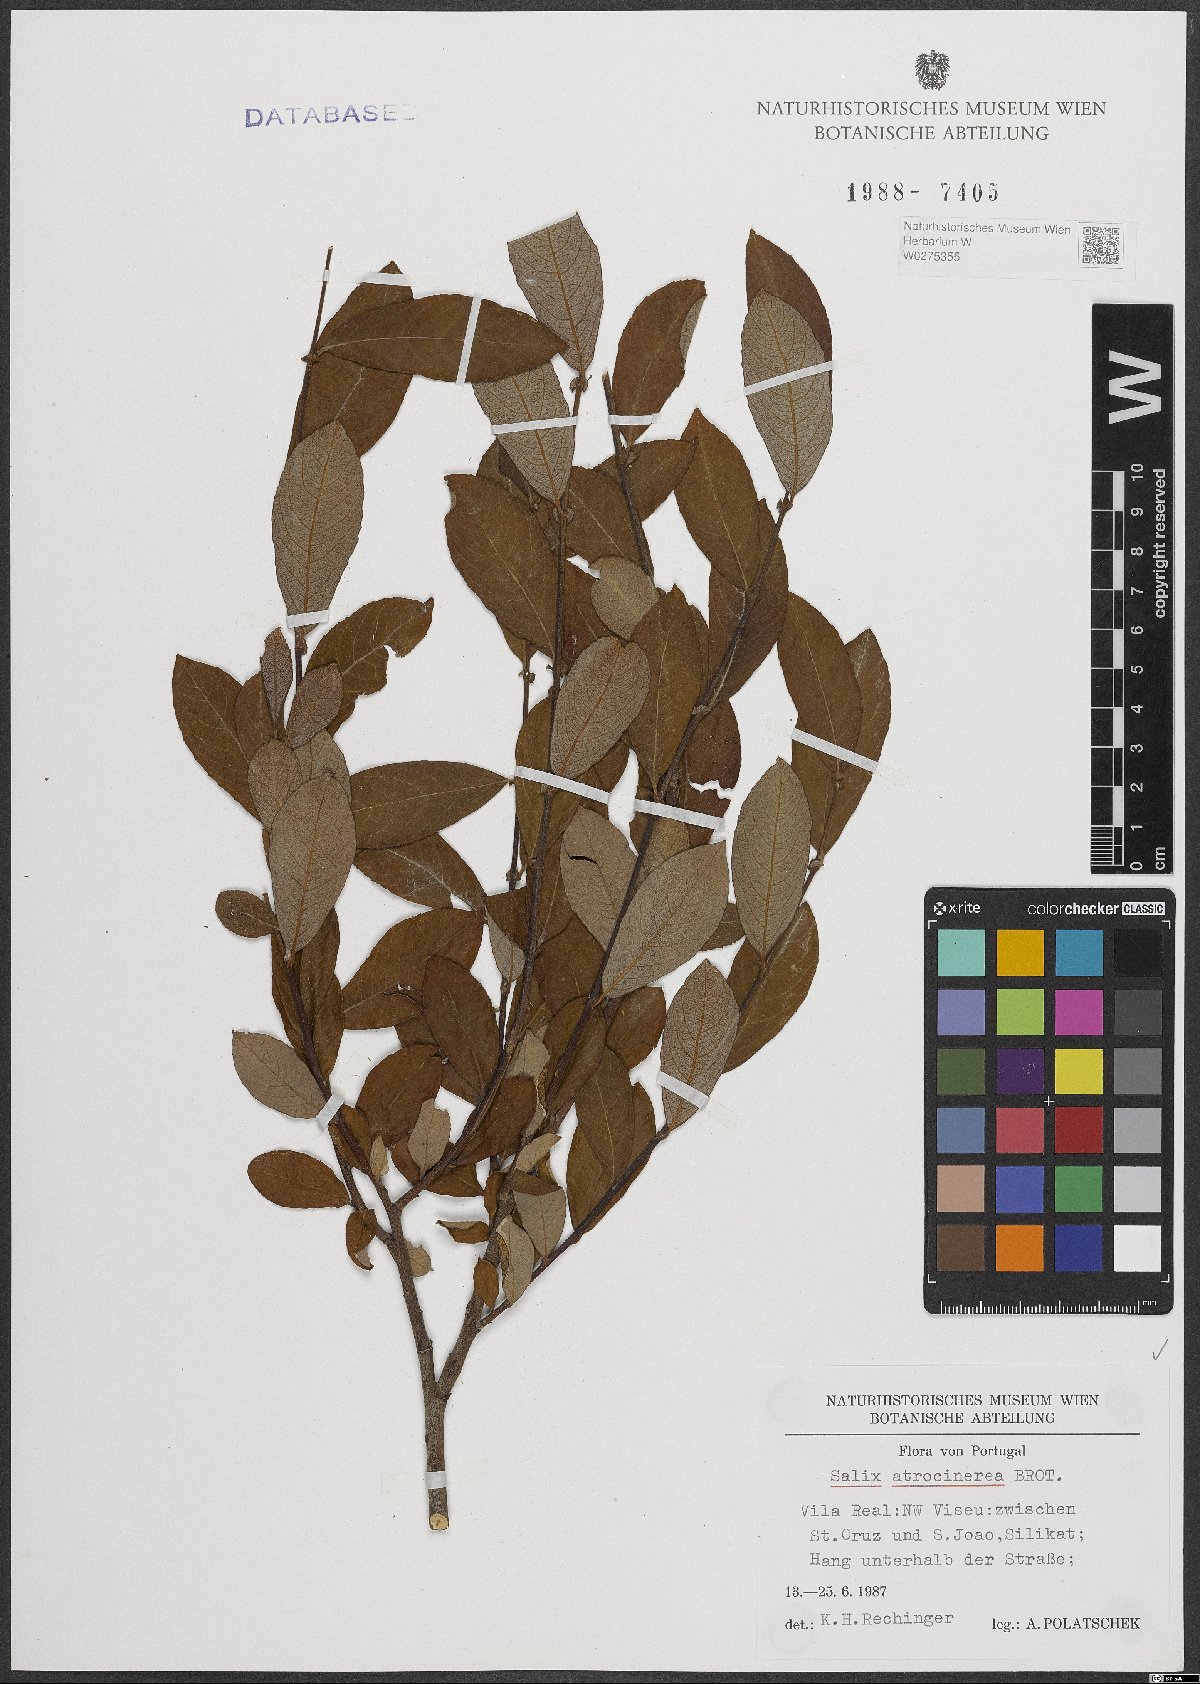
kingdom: Plantae
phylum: Tracheophyta
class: Magnoliopsida
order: Malpighiales
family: Salicaceae
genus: Salix
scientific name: Salix atrocinerea
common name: Rusty willow
